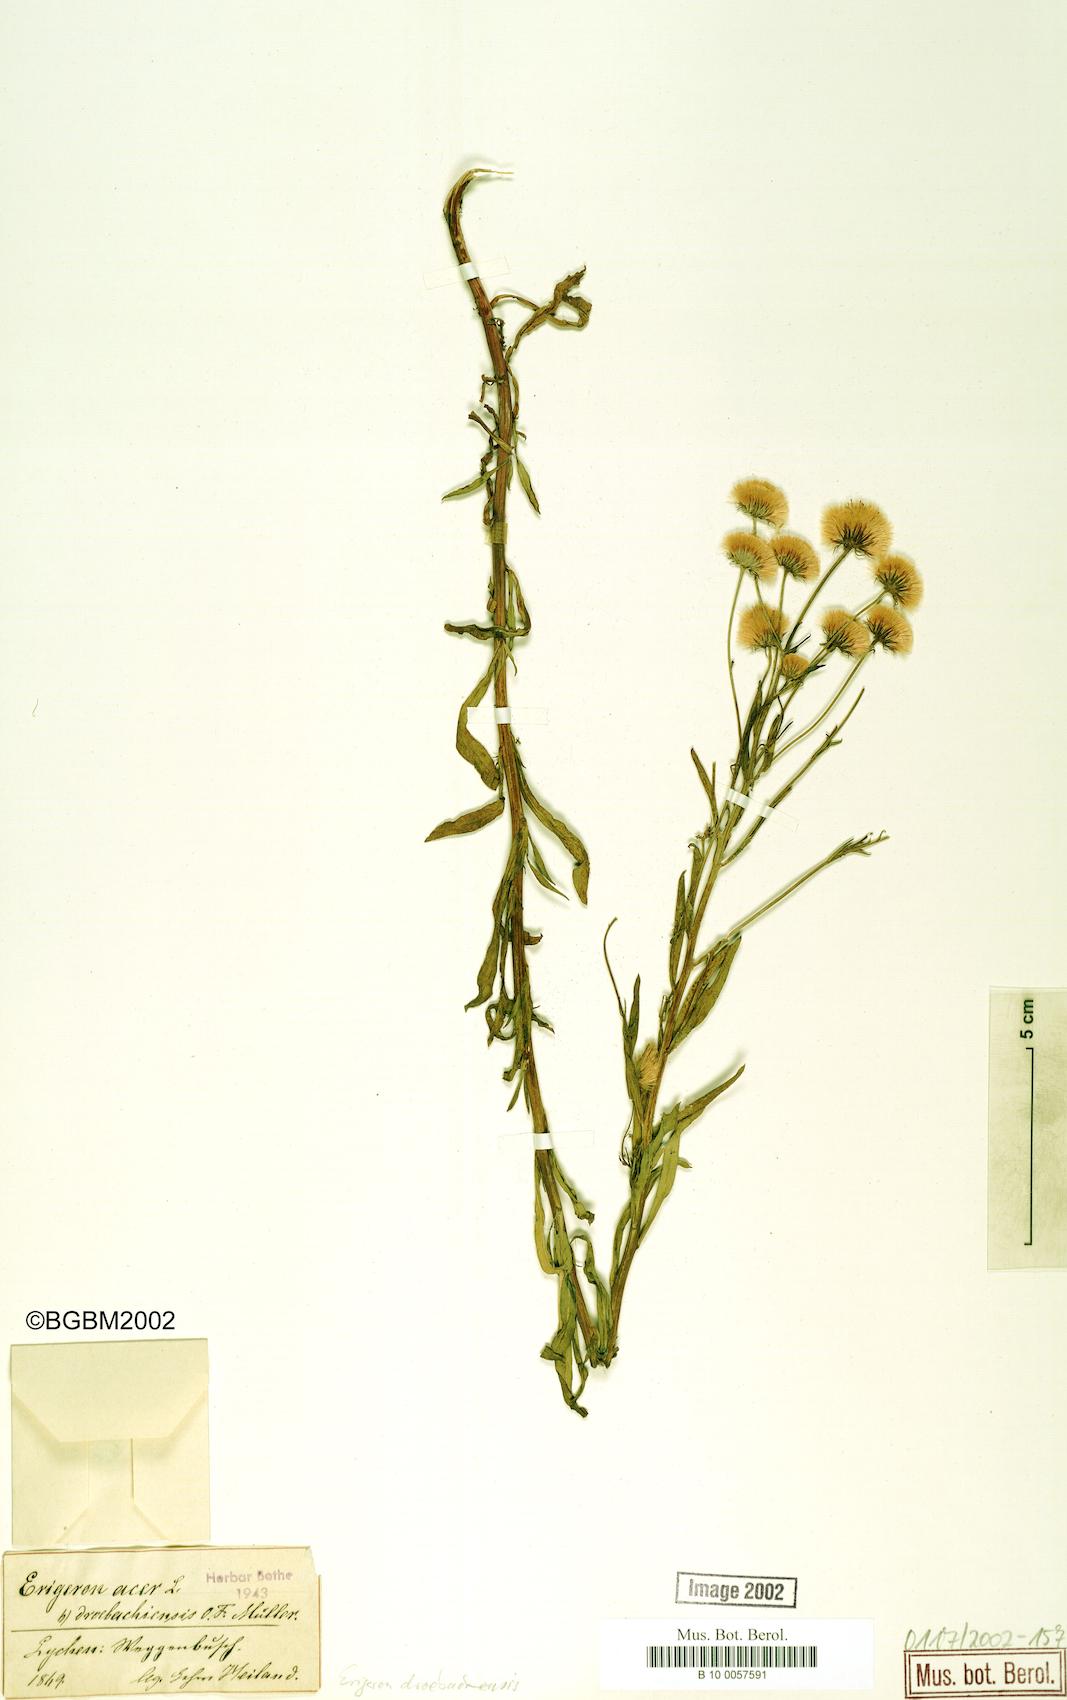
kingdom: Plantae
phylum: Tracheophyta
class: Magnoliopsida
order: Asterales
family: Asteraceae
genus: Erigeron
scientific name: Erigeron acris
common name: Blue fleabane
